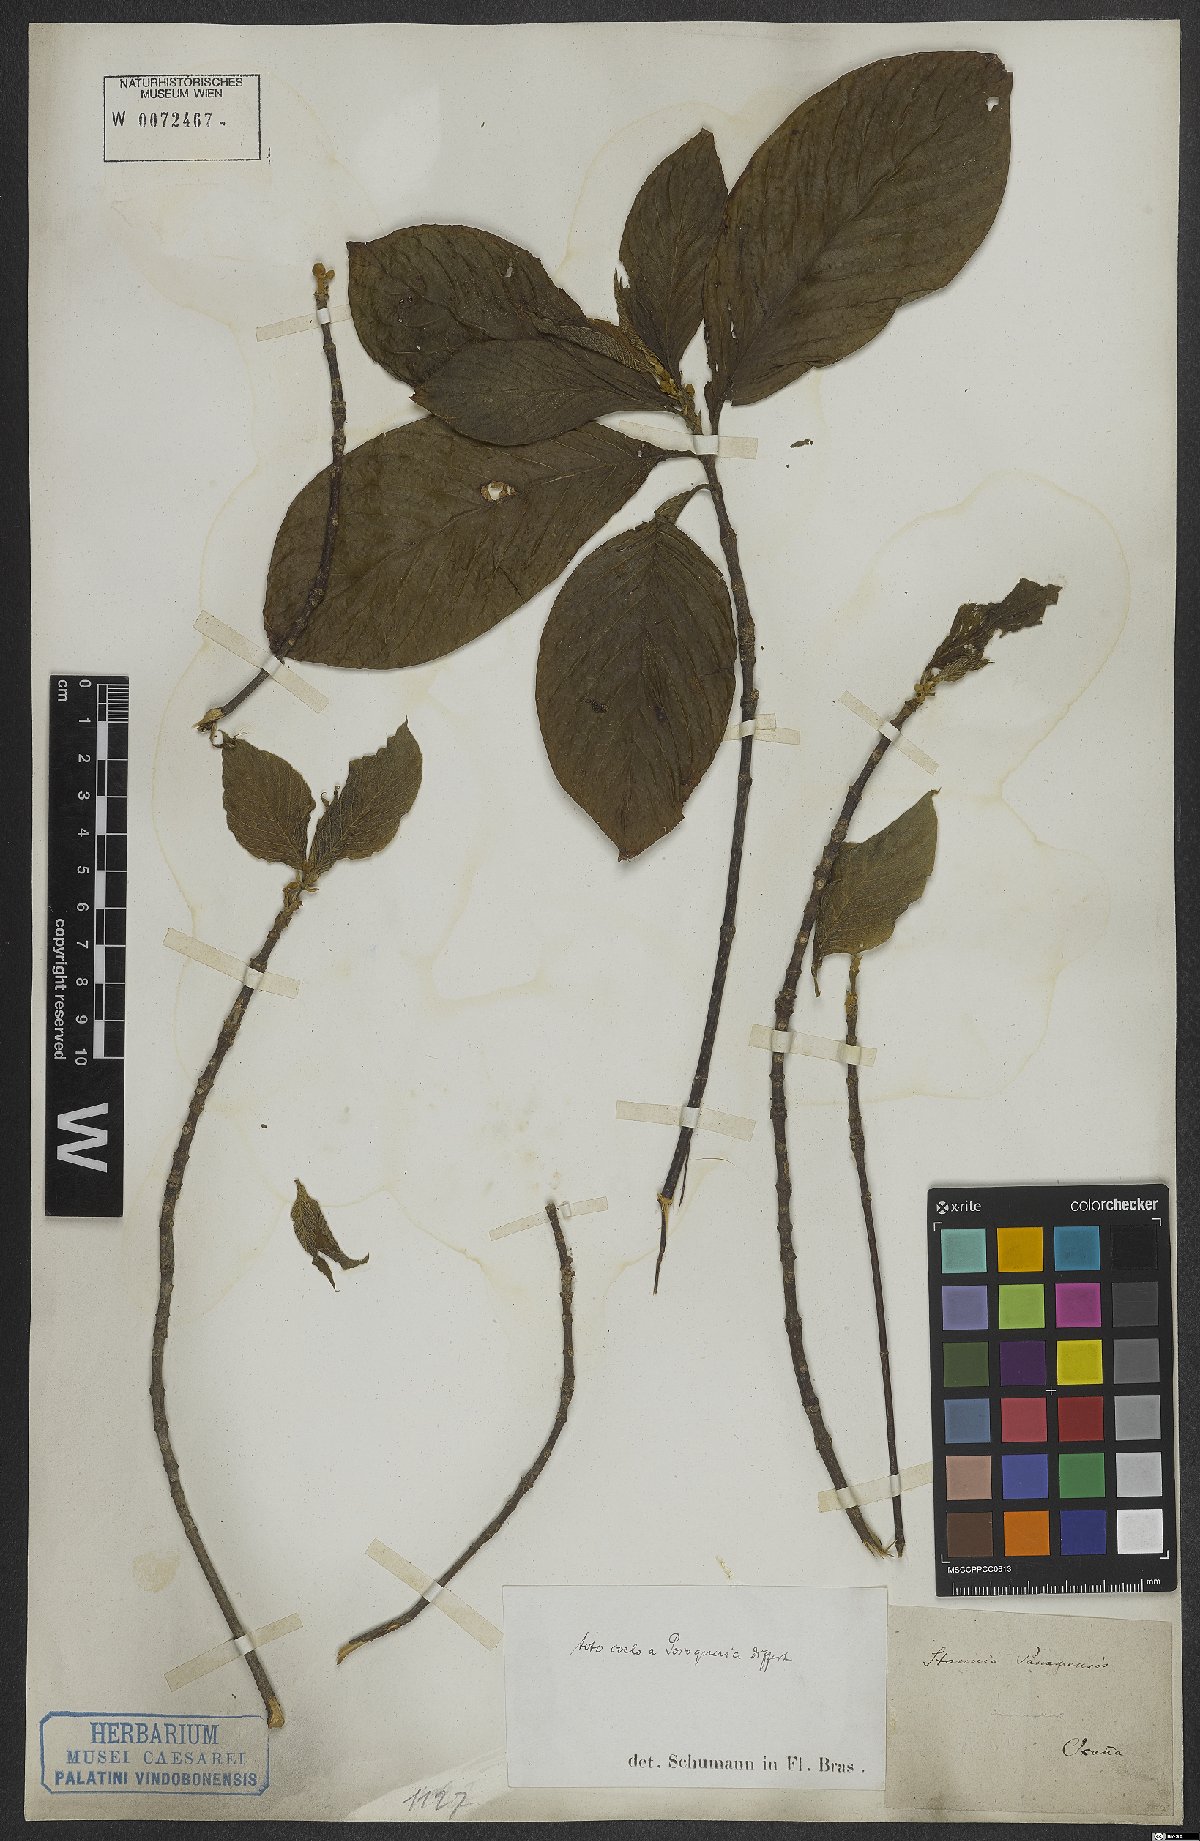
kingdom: Plantae
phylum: Tracheophyta
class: Magnoliopsida
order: Gentianales
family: Rubiaceae
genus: Posoqueria
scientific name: Posoqueria latifolia
